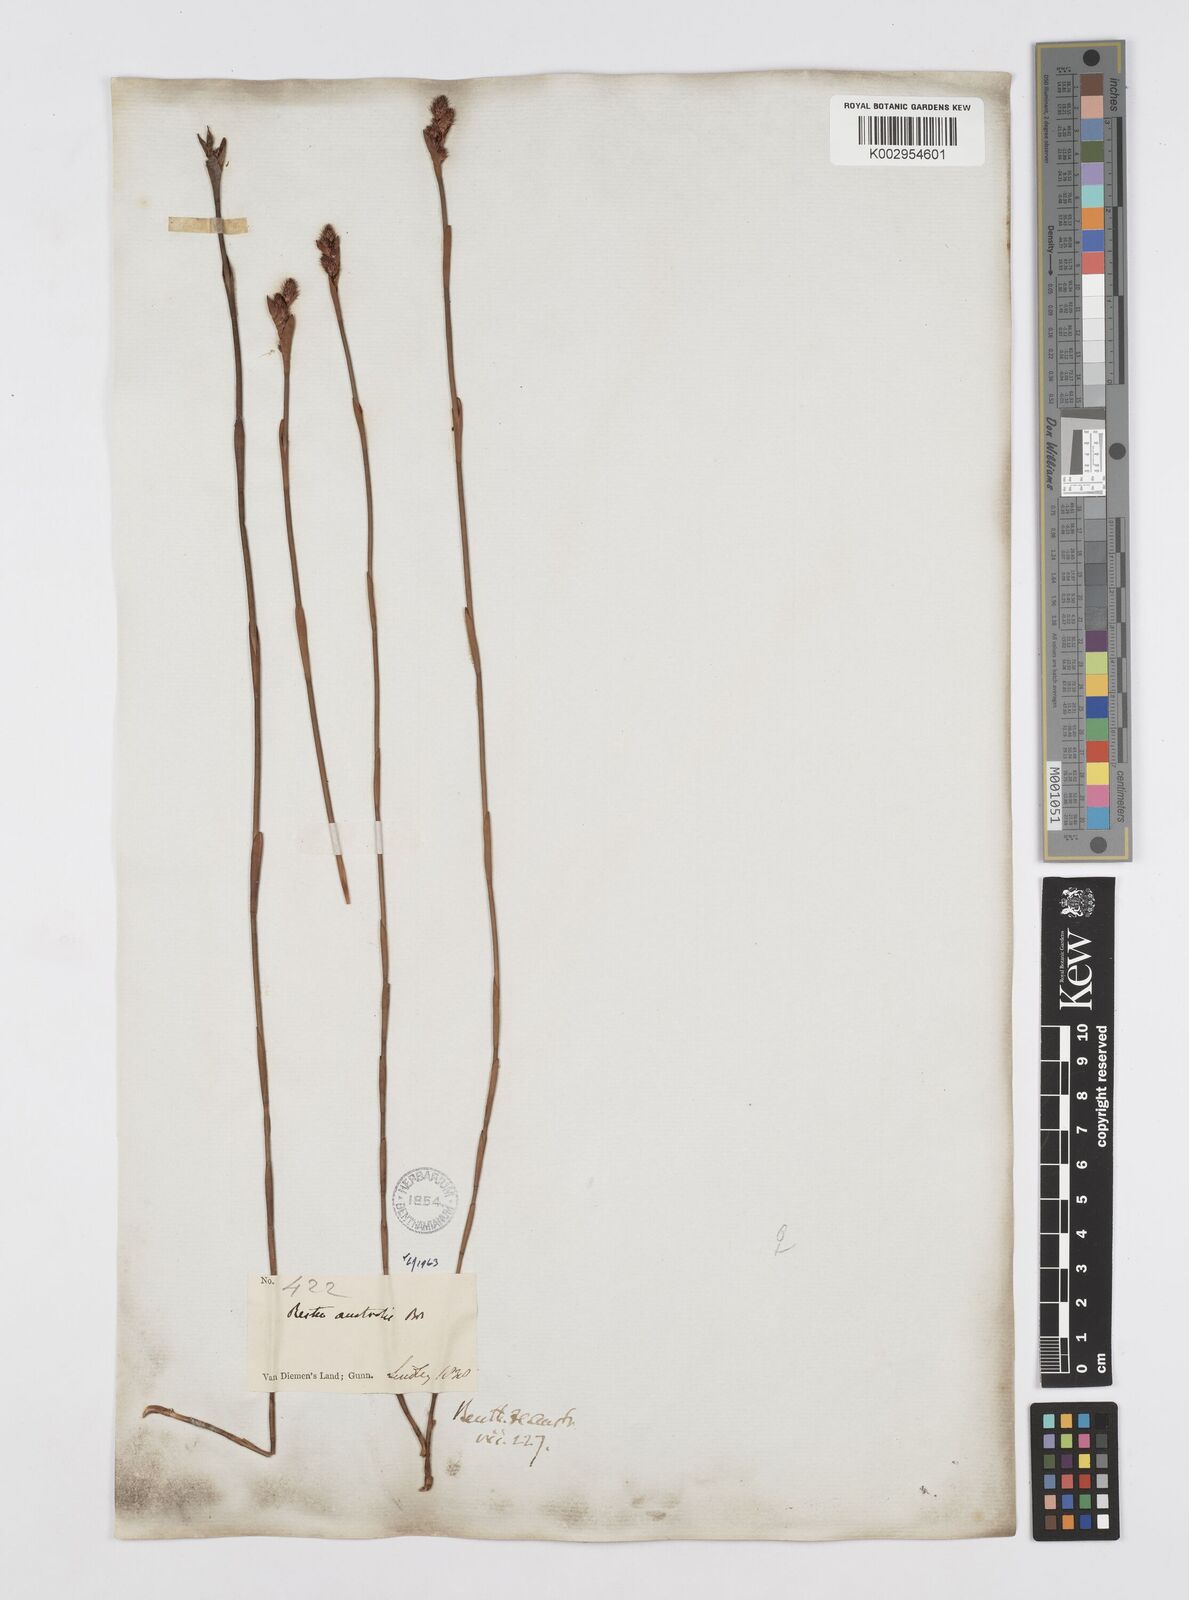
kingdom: Plantae
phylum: Tracheophyta
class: Liliopsida
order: Poales
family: Restionaceae
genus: Baloskion
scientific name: Baloskion australe
